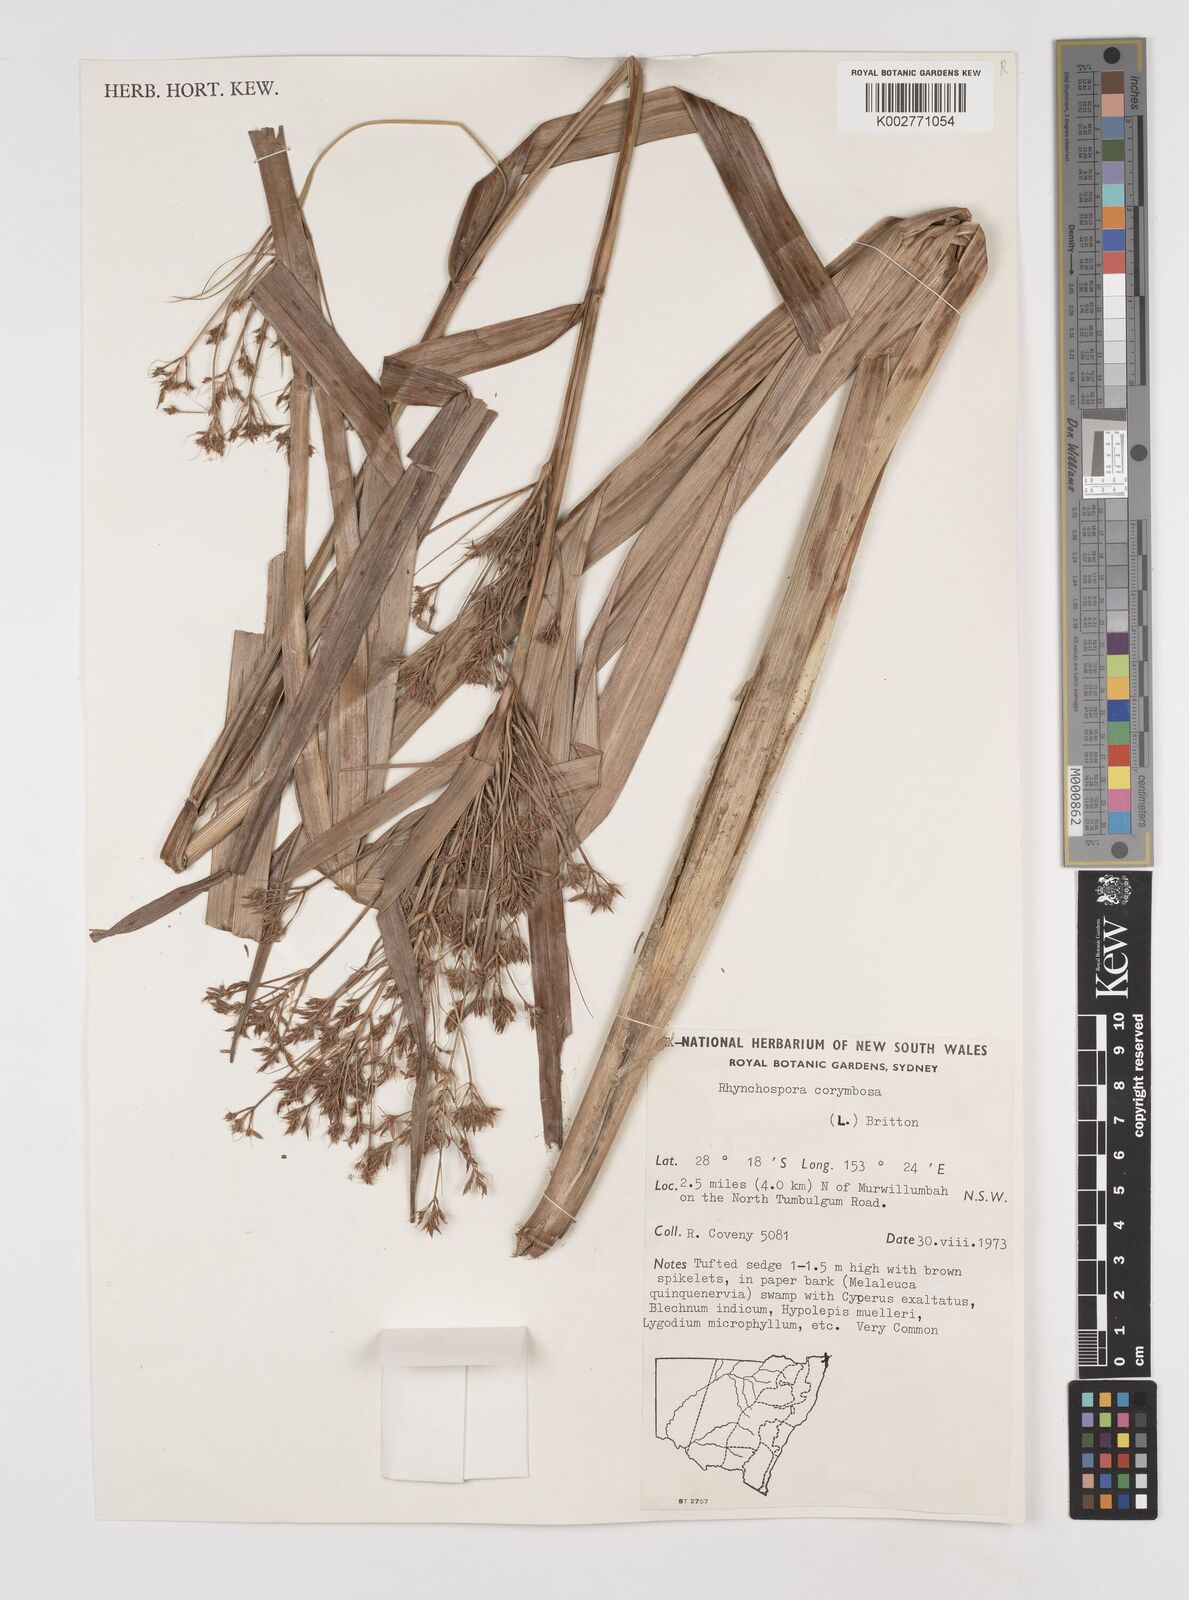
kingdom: Plantae
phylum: Tracheophyta
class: Liliopsida
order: Poales
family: Cyperaceae
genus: Rhynchospora
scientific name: Rhynchospora corymbosa
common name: Golden beak sedge
